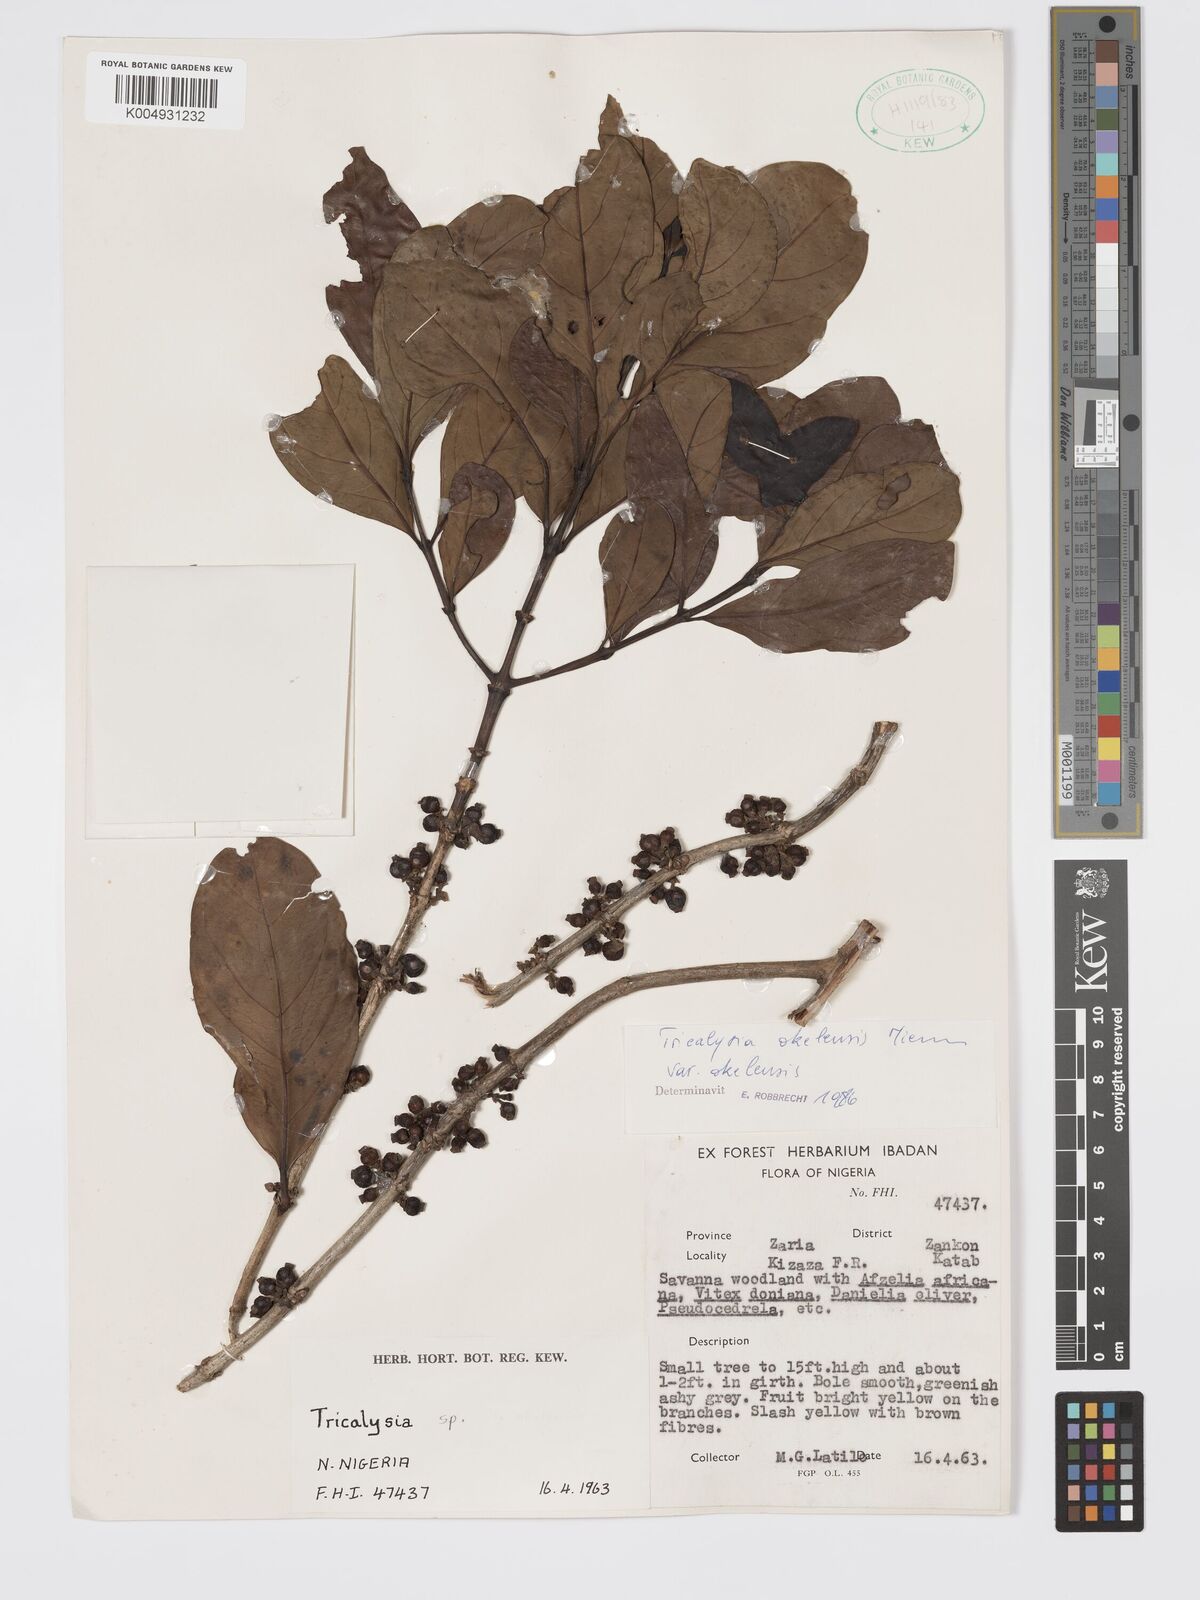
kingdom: Plantae
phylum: Tracheophyta
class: Magnoliopsida
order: Gentianales
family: Rubiaceae
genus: Tricalysia
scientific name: Tricalysia okelensis
